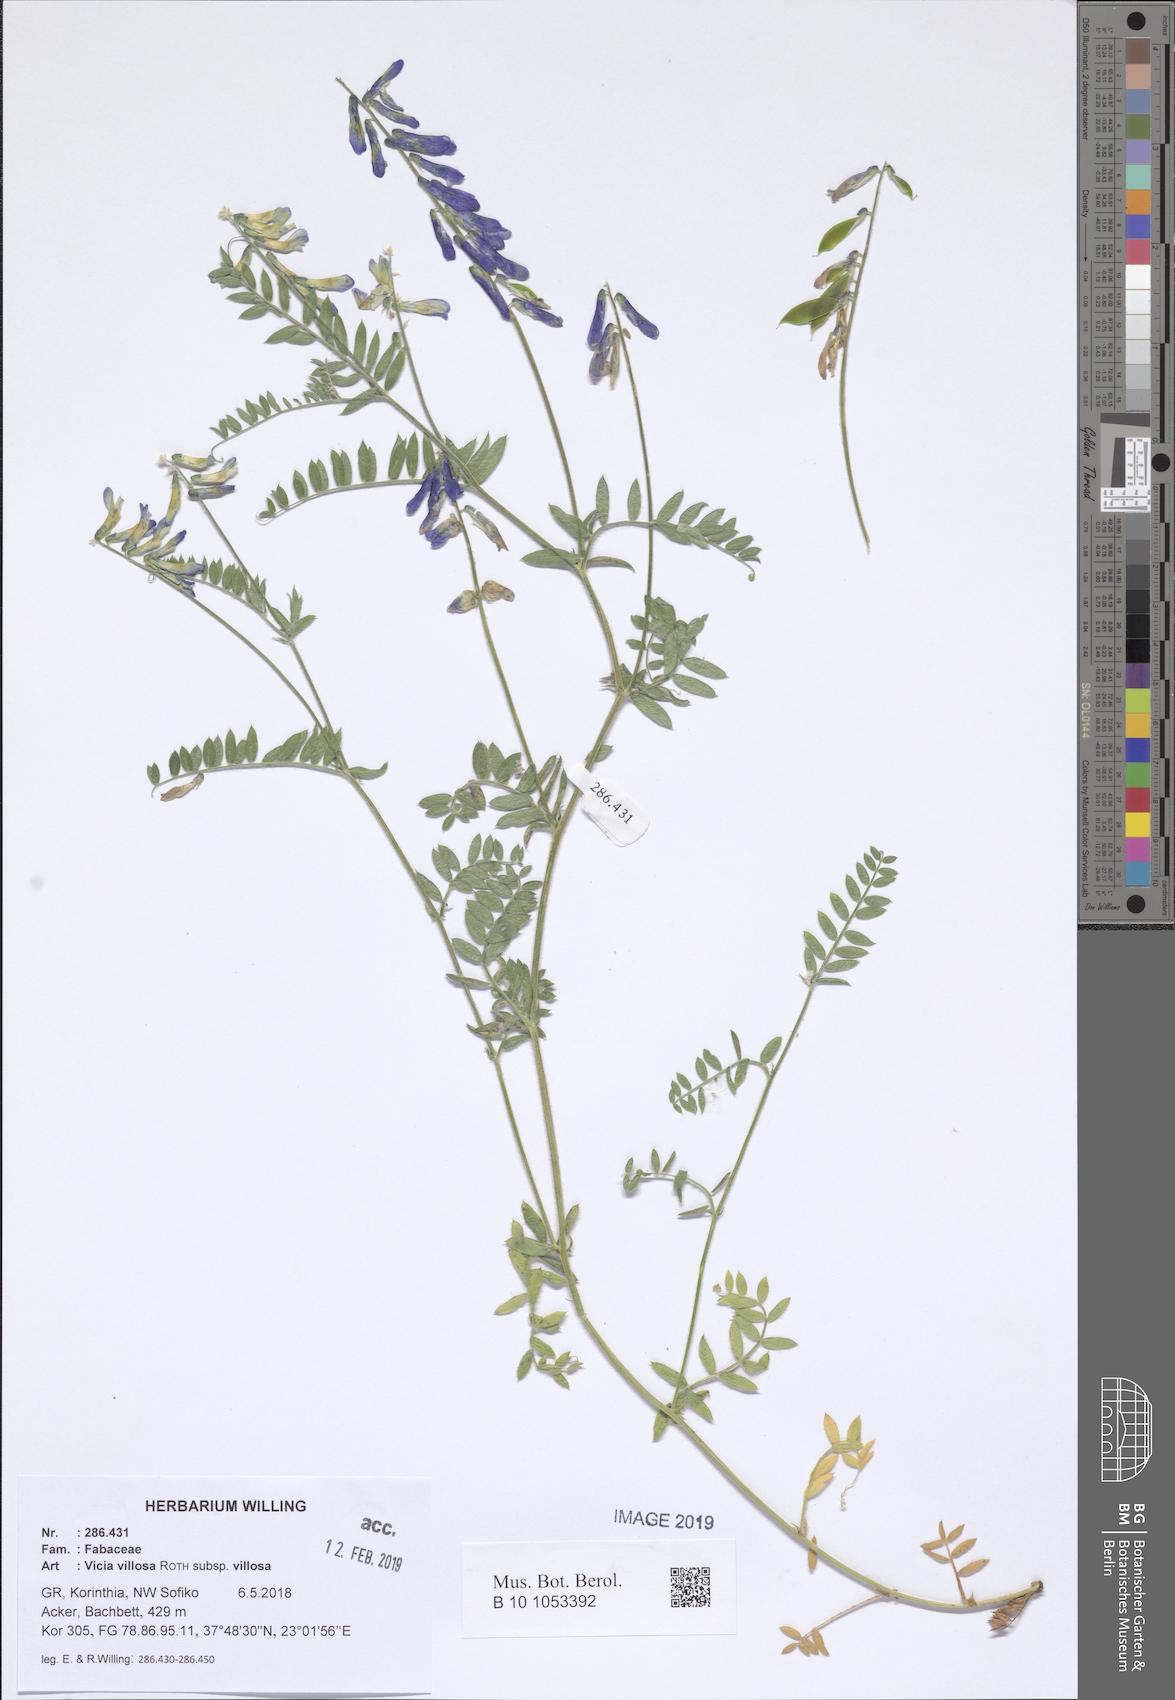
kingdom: Plantae
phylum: Tracheophyta
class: Magnoliopsida
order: Fabales
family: Fabaceae
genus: Vicia
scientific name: Vicia villosa
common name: Fodder vetch
